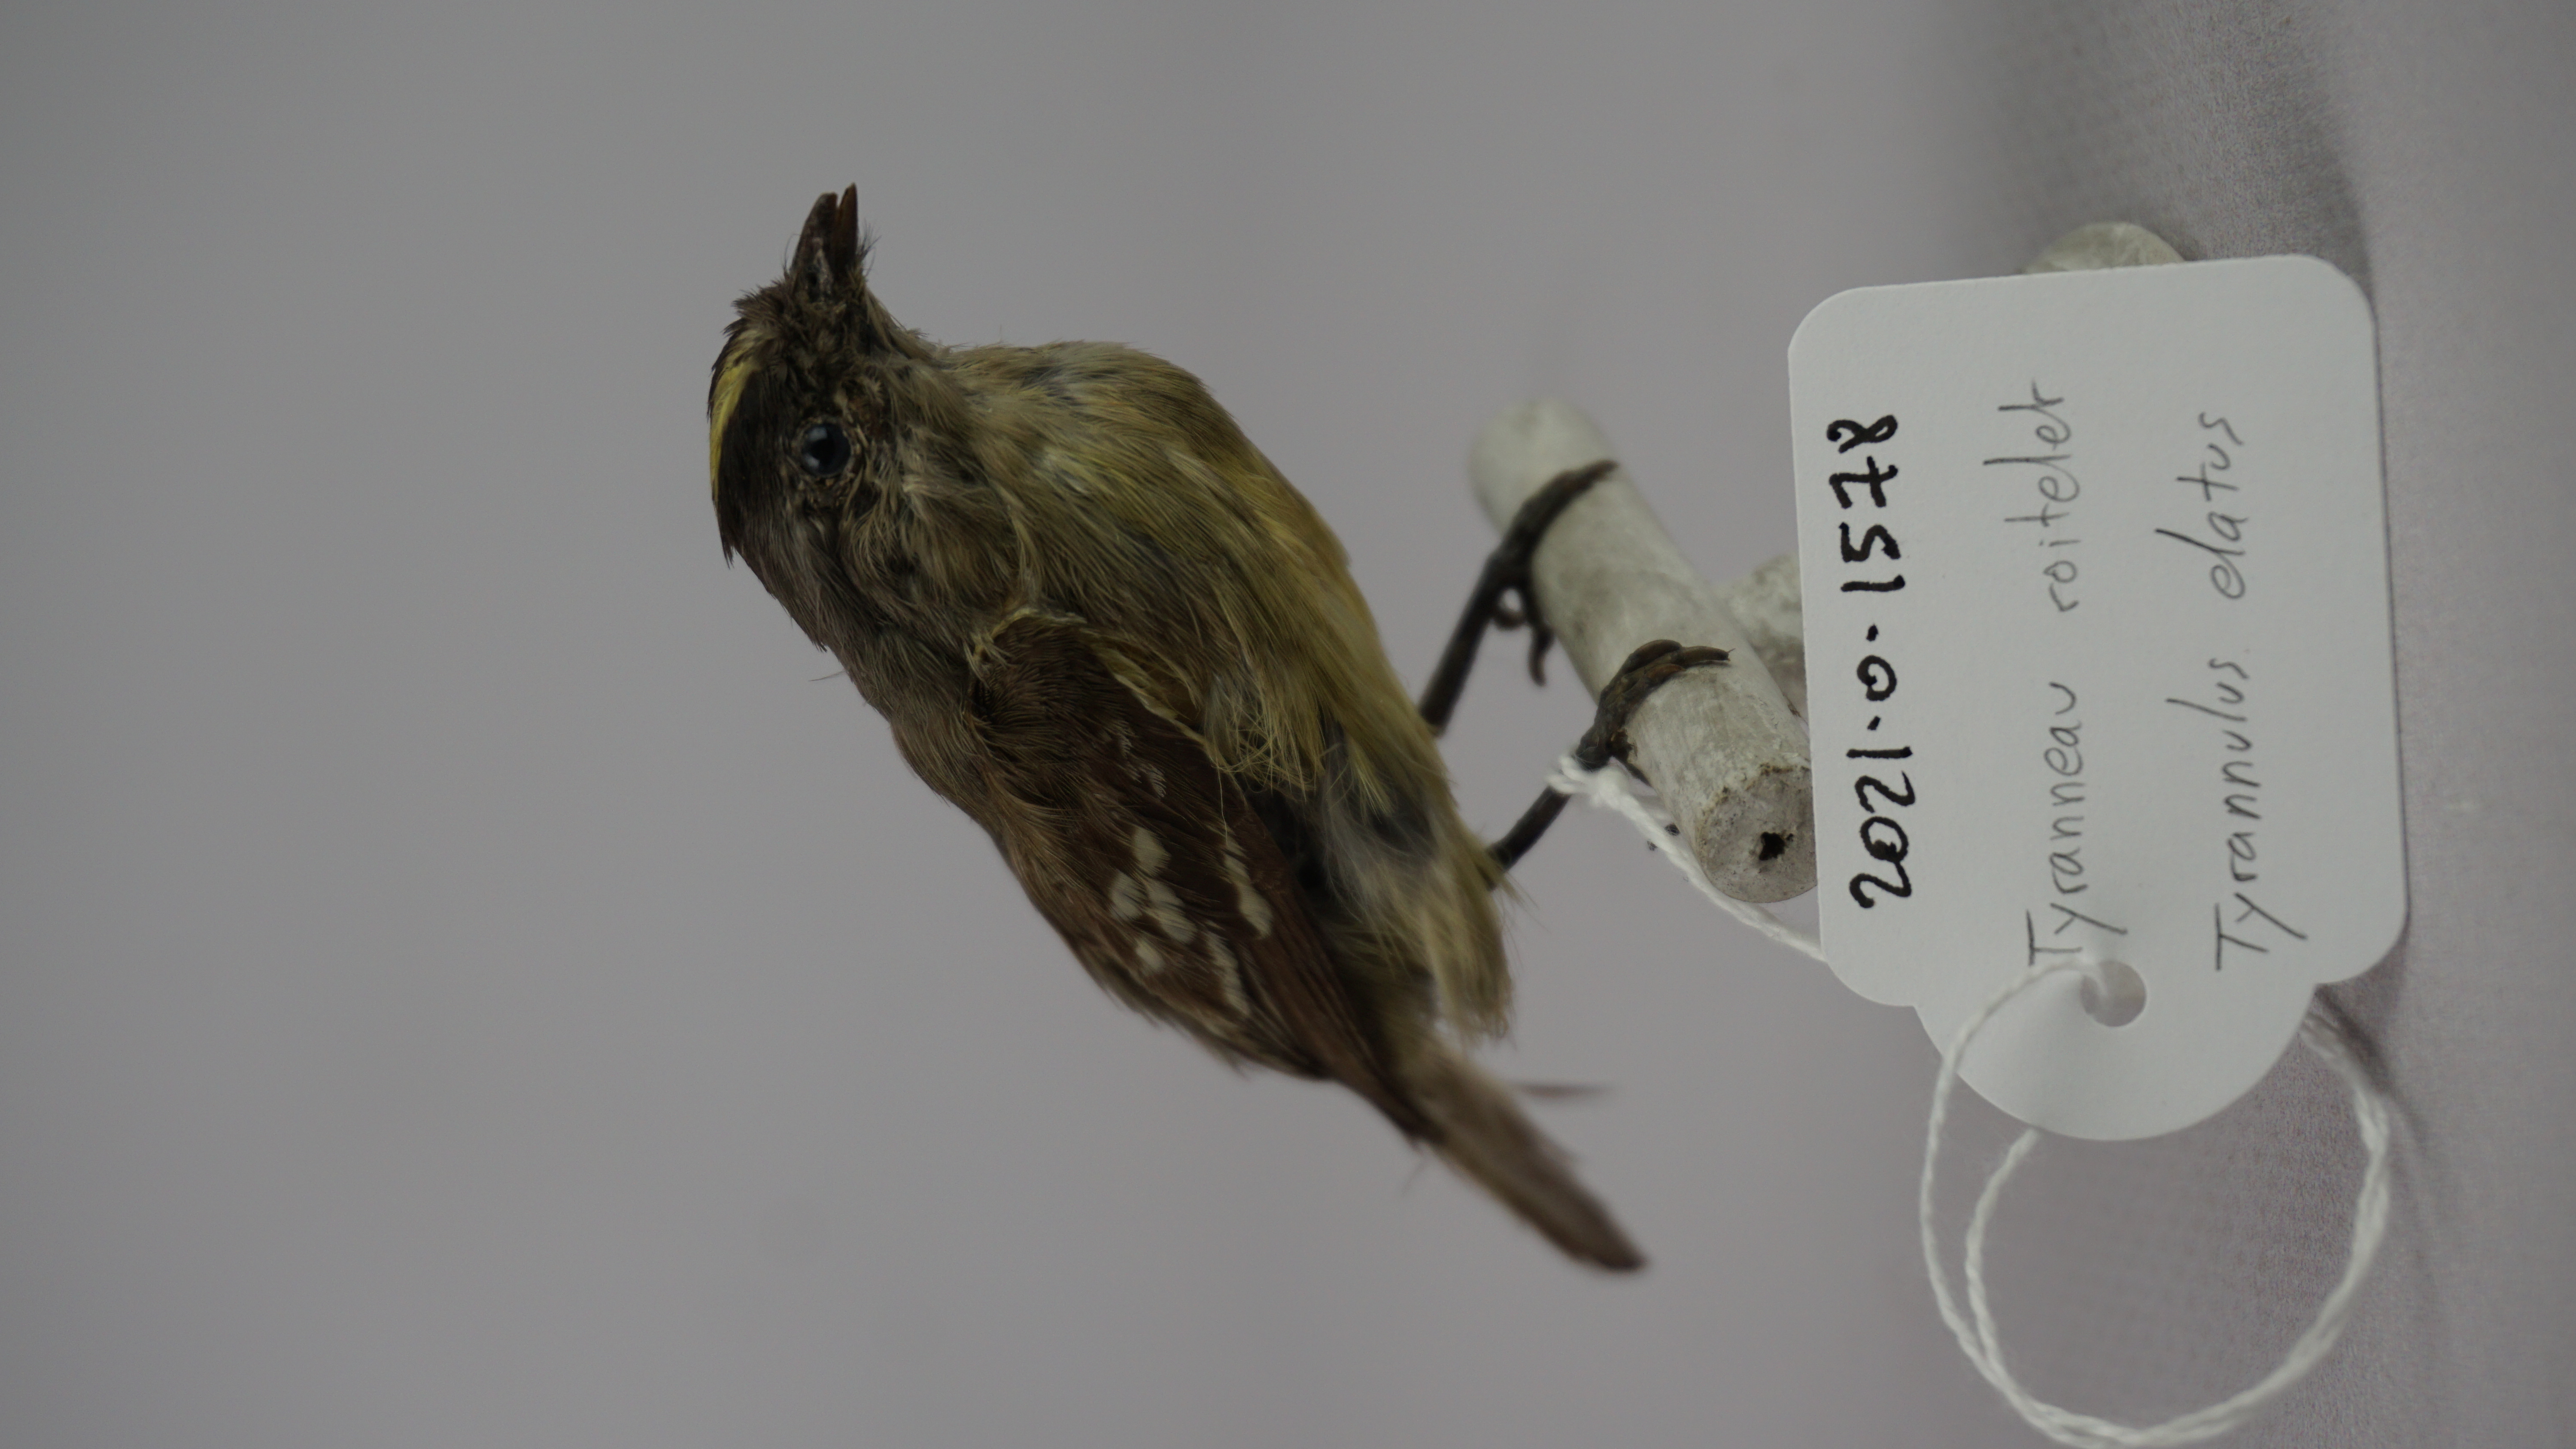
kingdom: Animalia
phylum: Chordata
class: Aves
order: Passeriformes
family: Tyrannidae
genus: Tyrannulus
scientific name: Tyrannulus elatus
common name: Yellow-crowned tyrannulet
